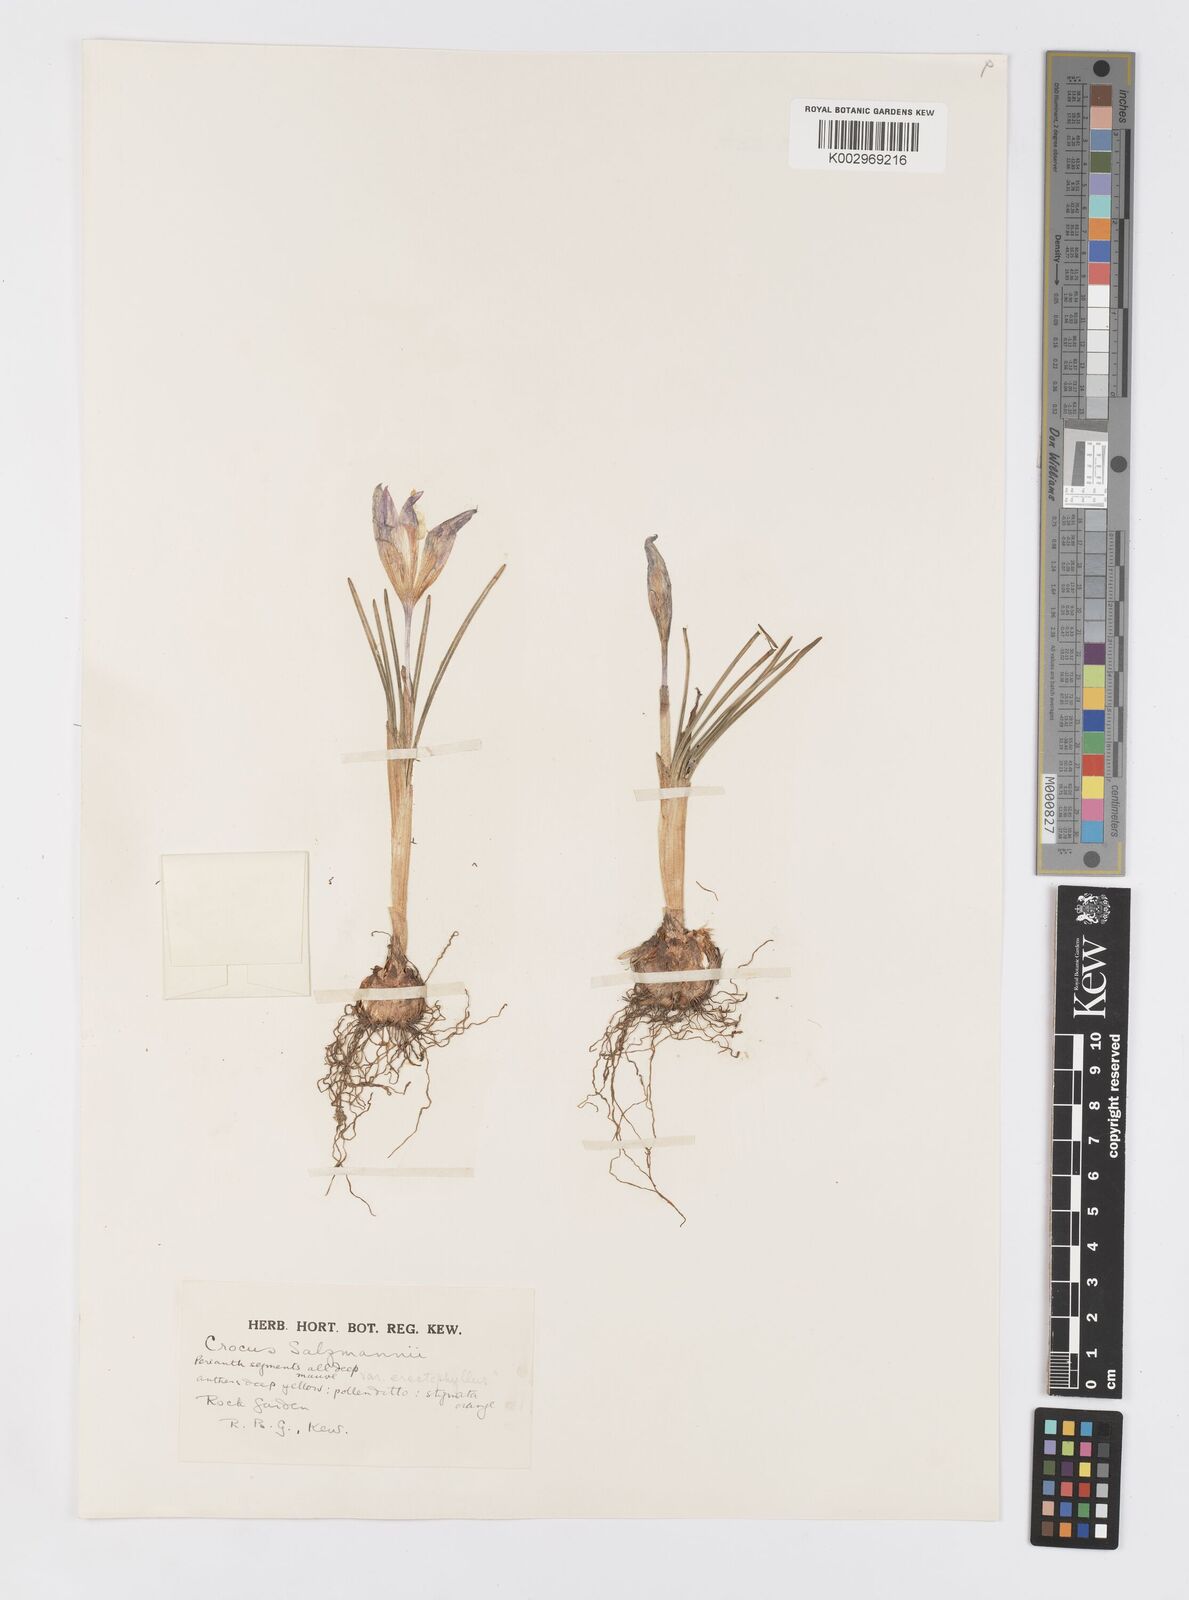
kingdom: Plantae
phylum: Tracheophyta
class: Liliopsida
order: Asparagales
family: Iridaceae
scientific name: Iridaceae
